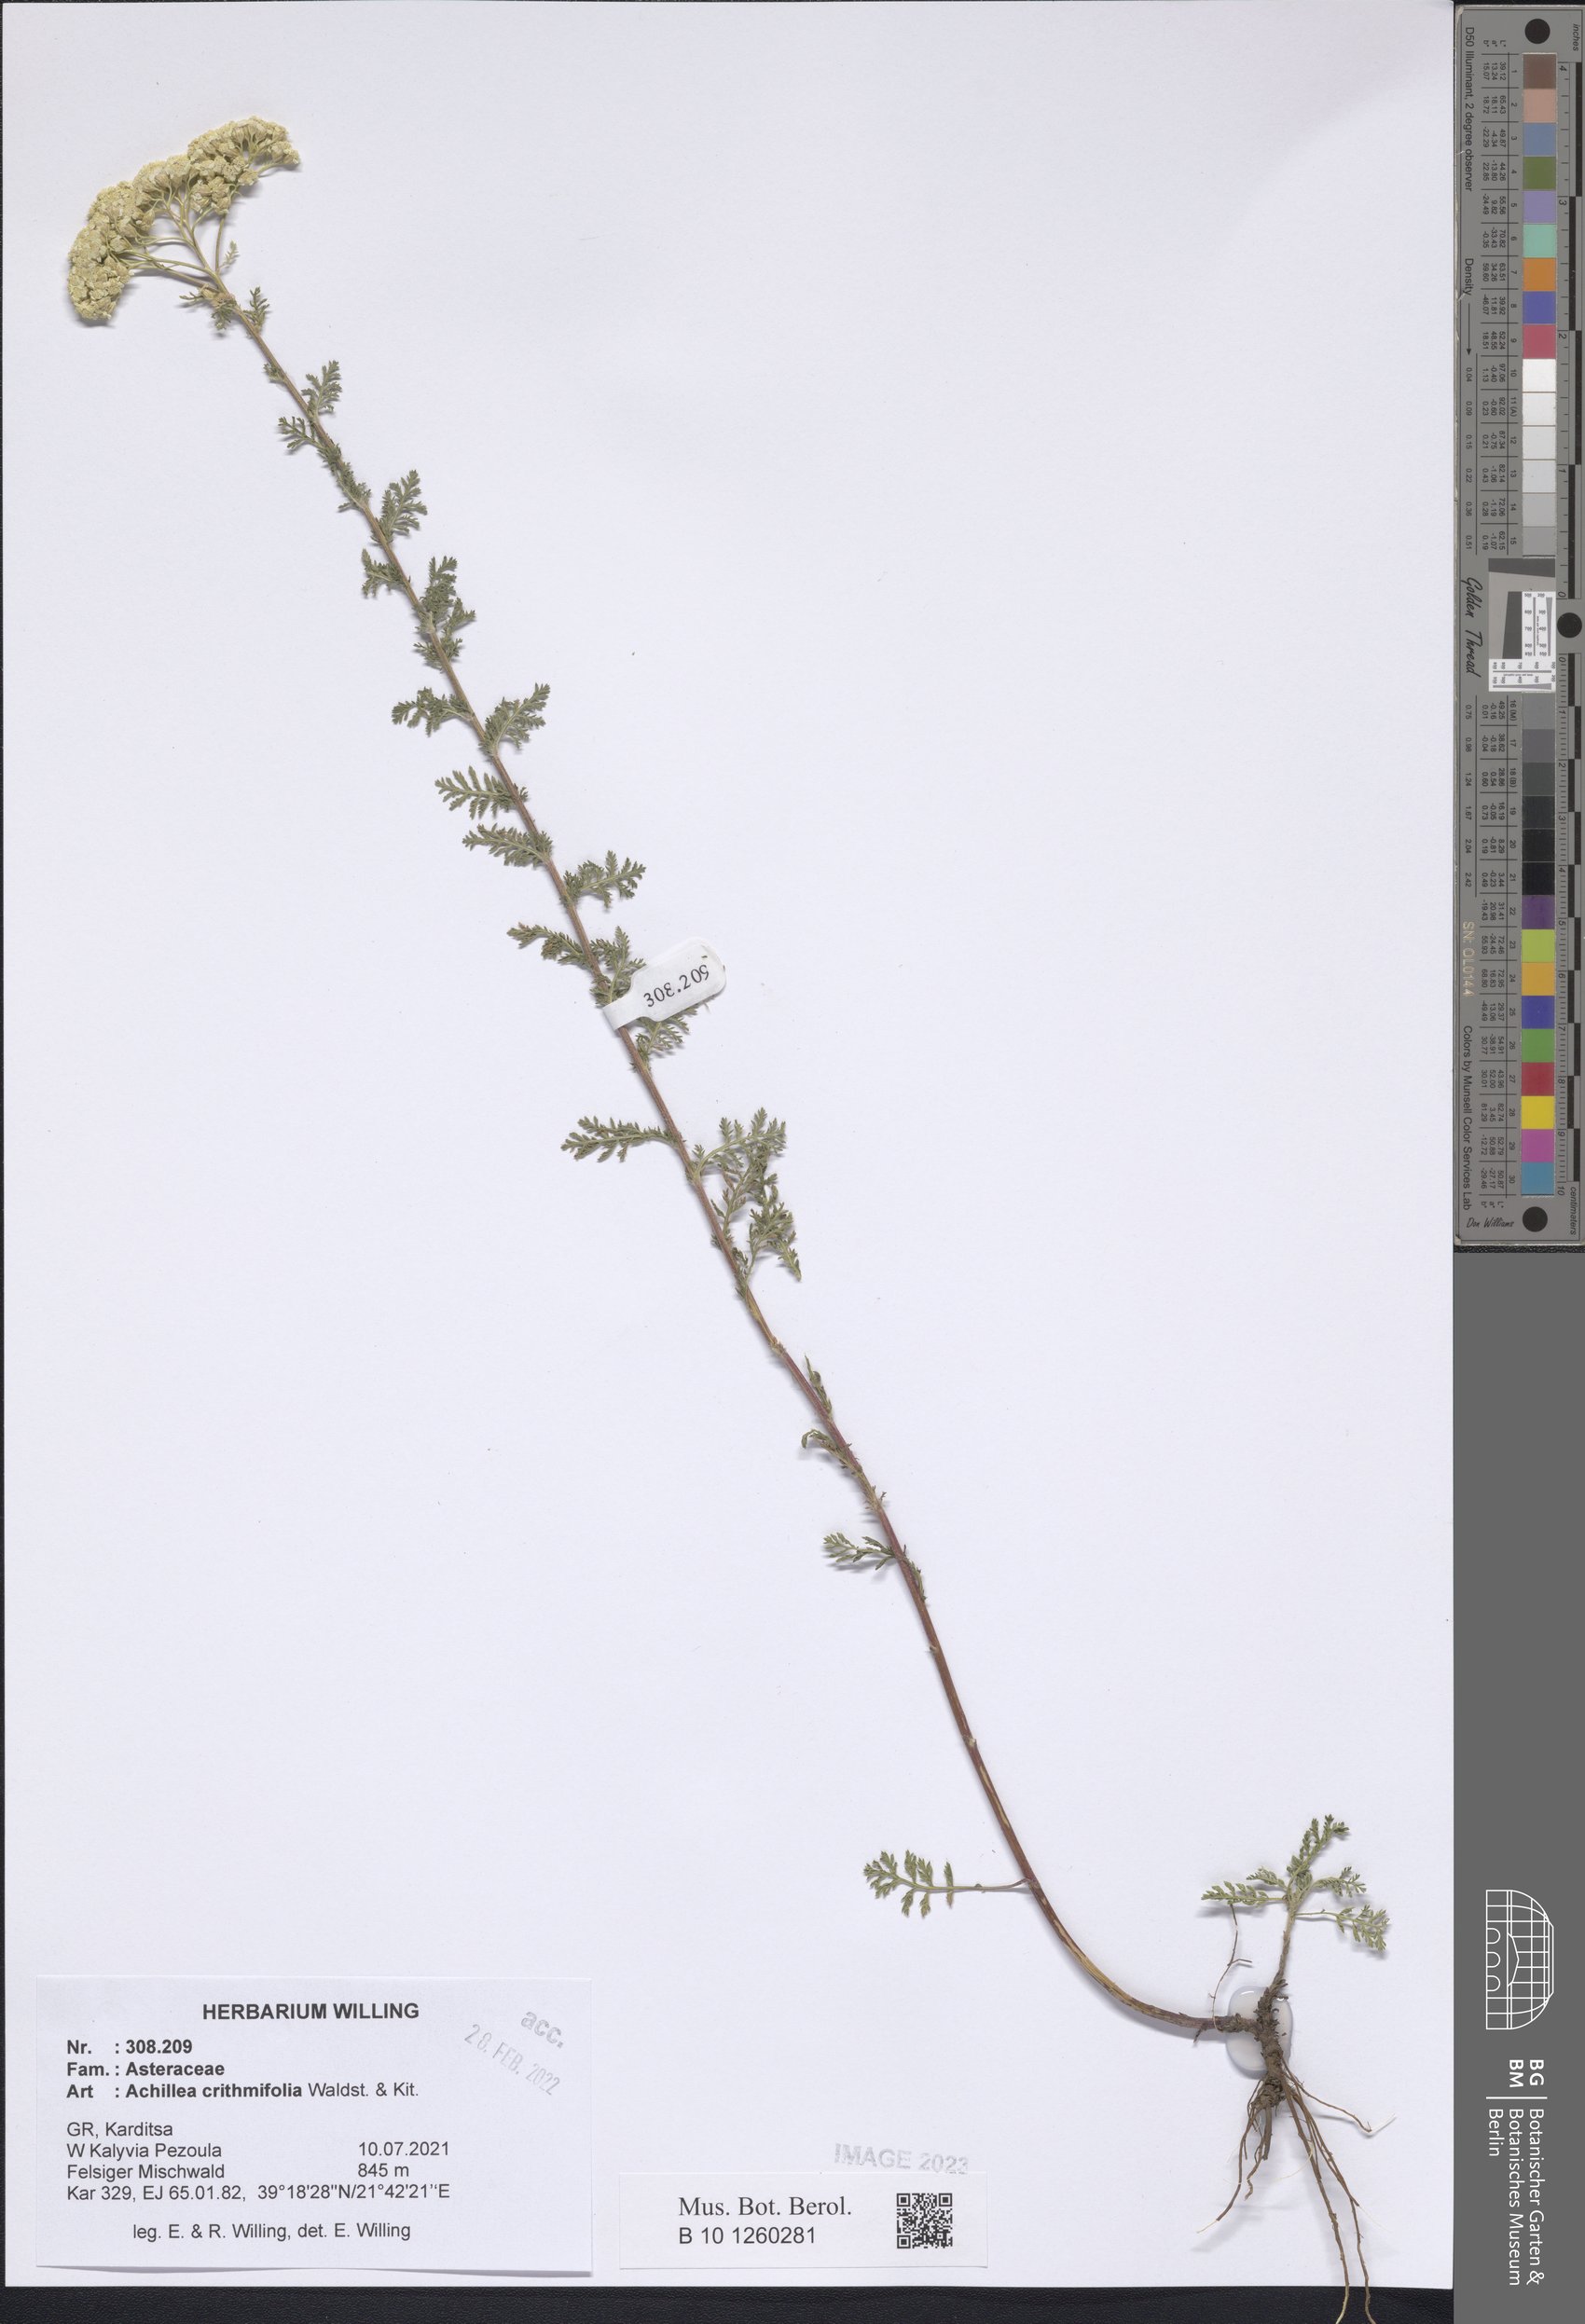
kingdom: Plantae
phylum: Tracheophyta
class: Magnoliopsida
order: Asterales
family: Asteraceae
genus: Achillea
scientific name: Achillea crithmifolia
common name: Yarrow
